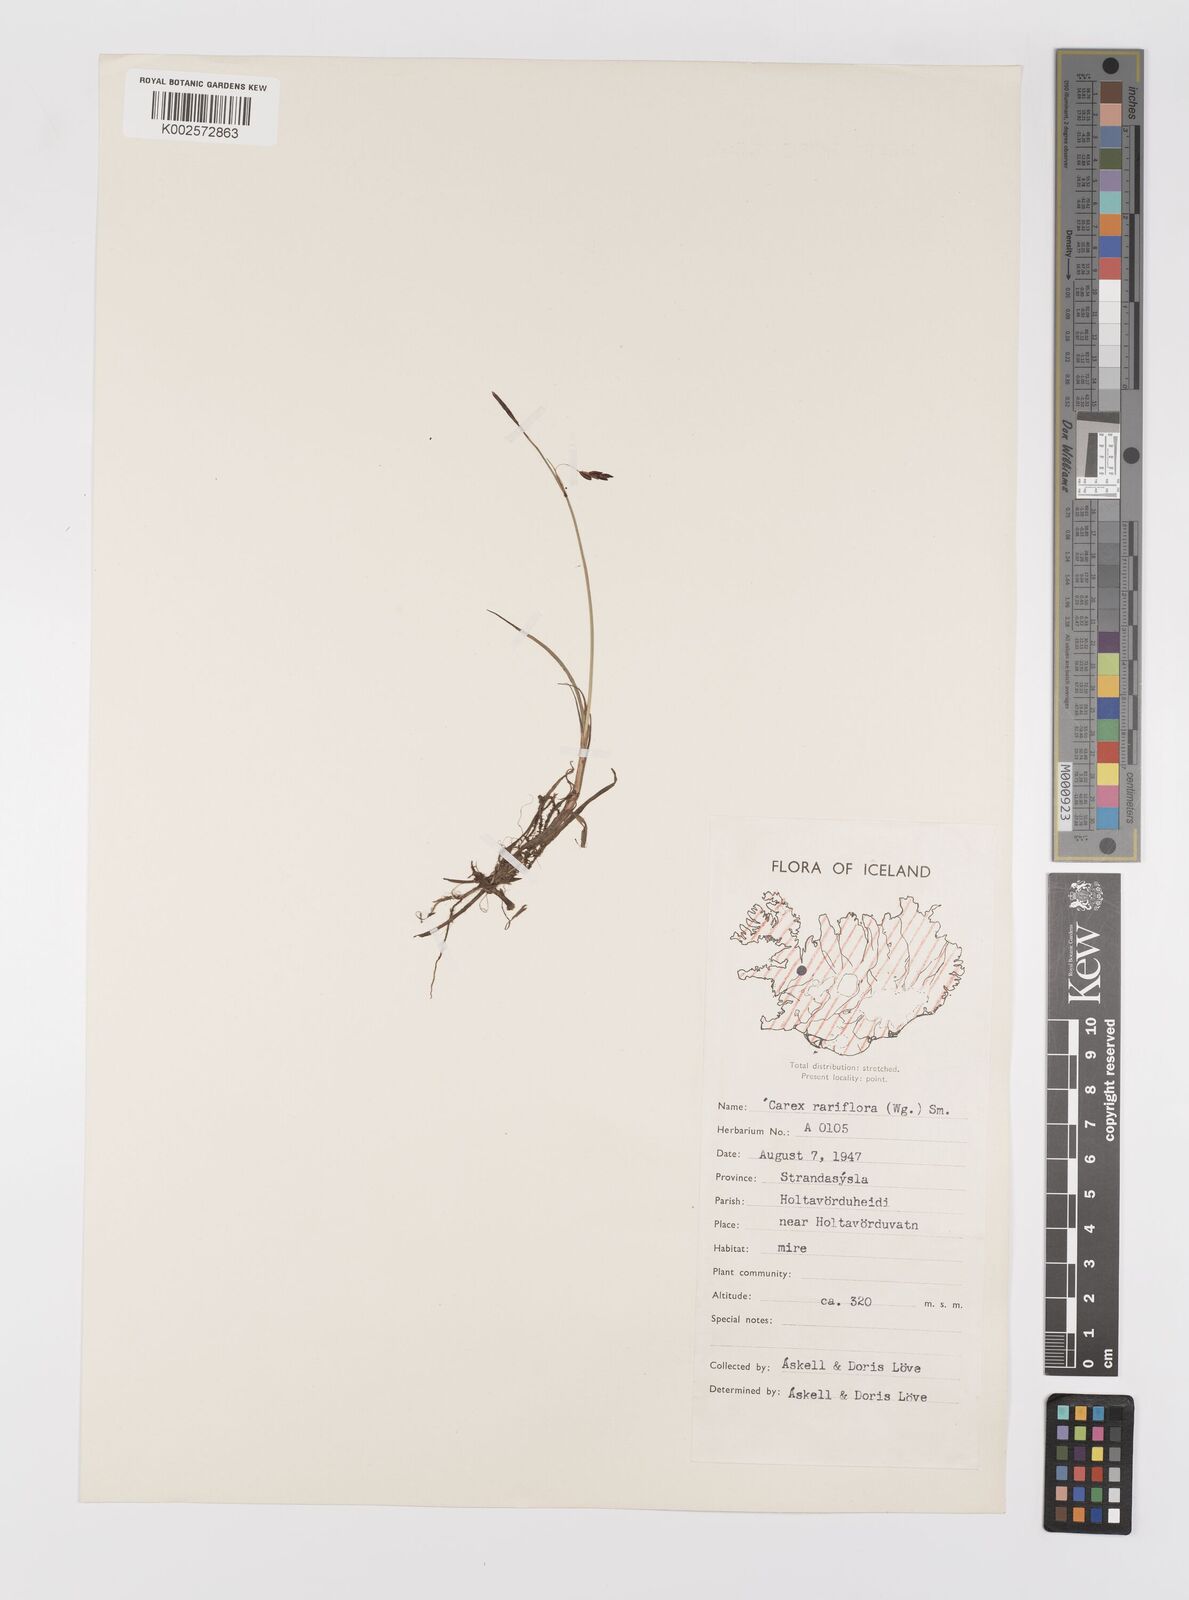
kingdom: Plantae
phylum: Tracheophyta
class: Liliopsida
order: Poales
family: Cyperaceae
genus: Carex
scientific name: Carex rariflora
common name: Loose-flowered alpine sedge
